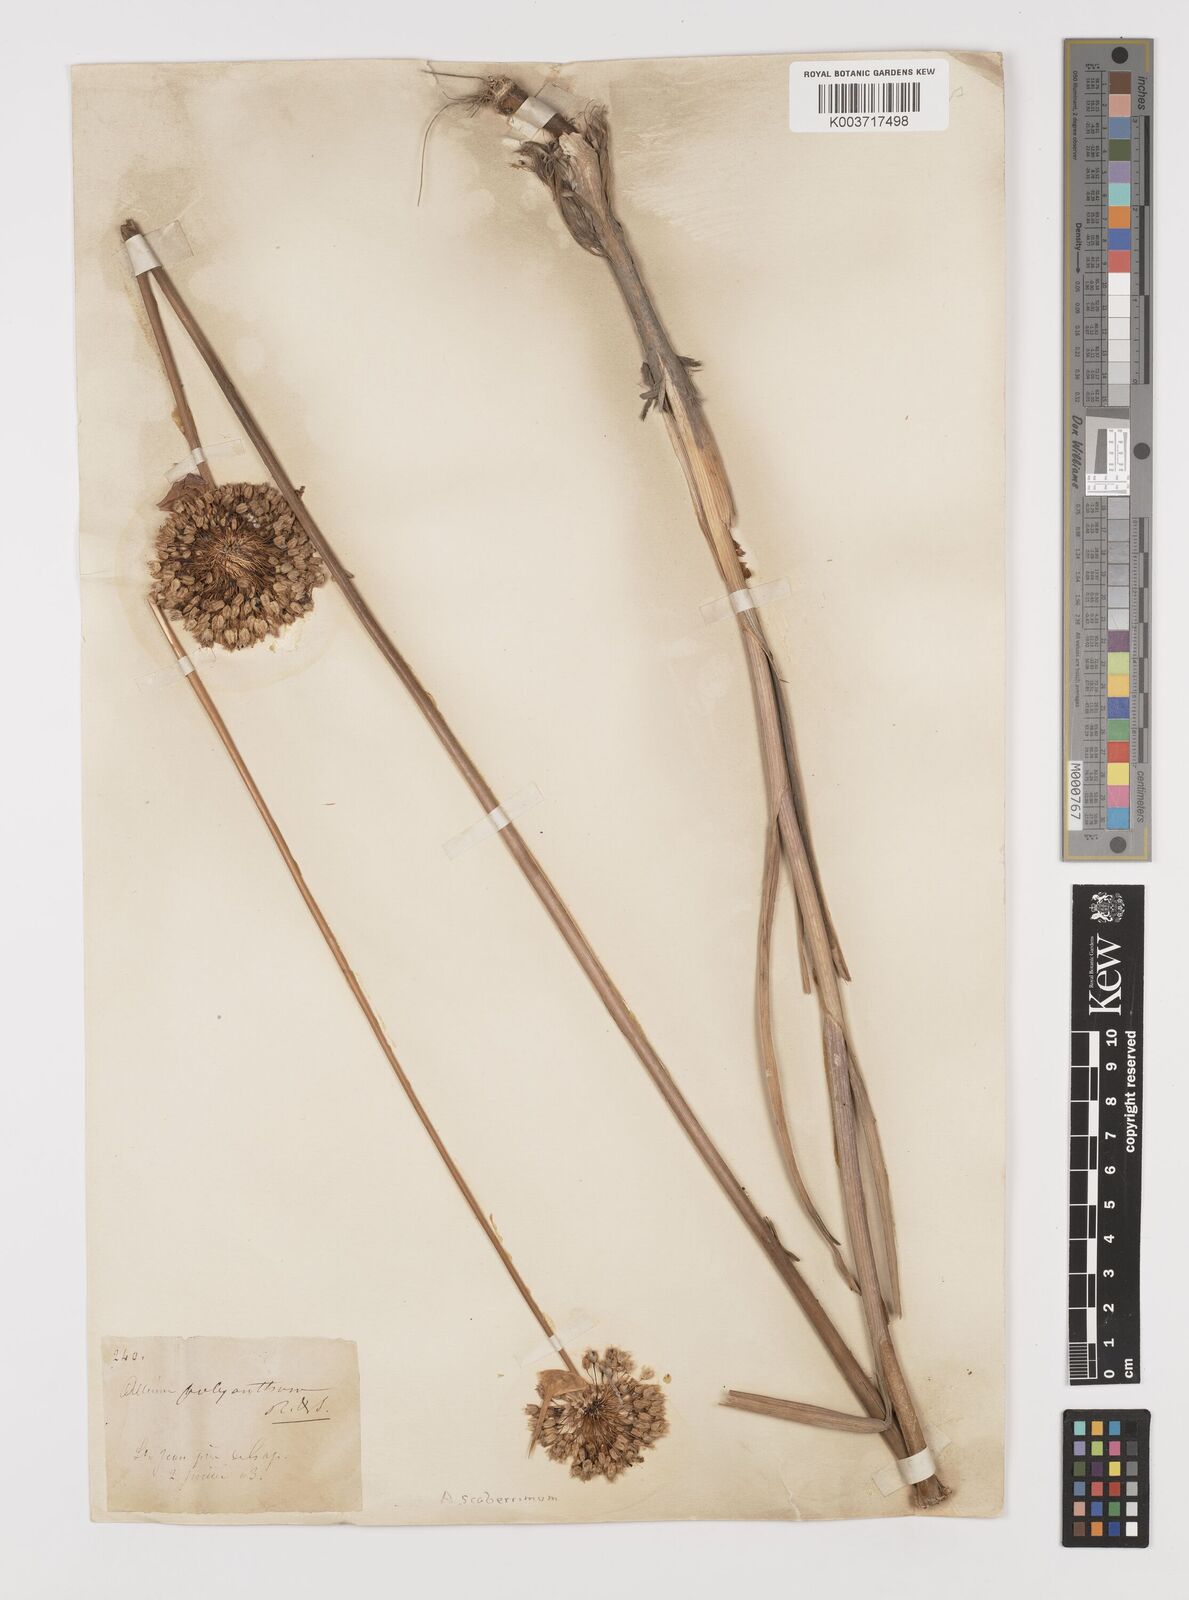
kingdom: Plantae
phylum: Tracheophyta
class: Liliopsida
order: Asparagales
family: Amaryllidaceae
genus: Allium
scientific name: Allium scaberrimum
